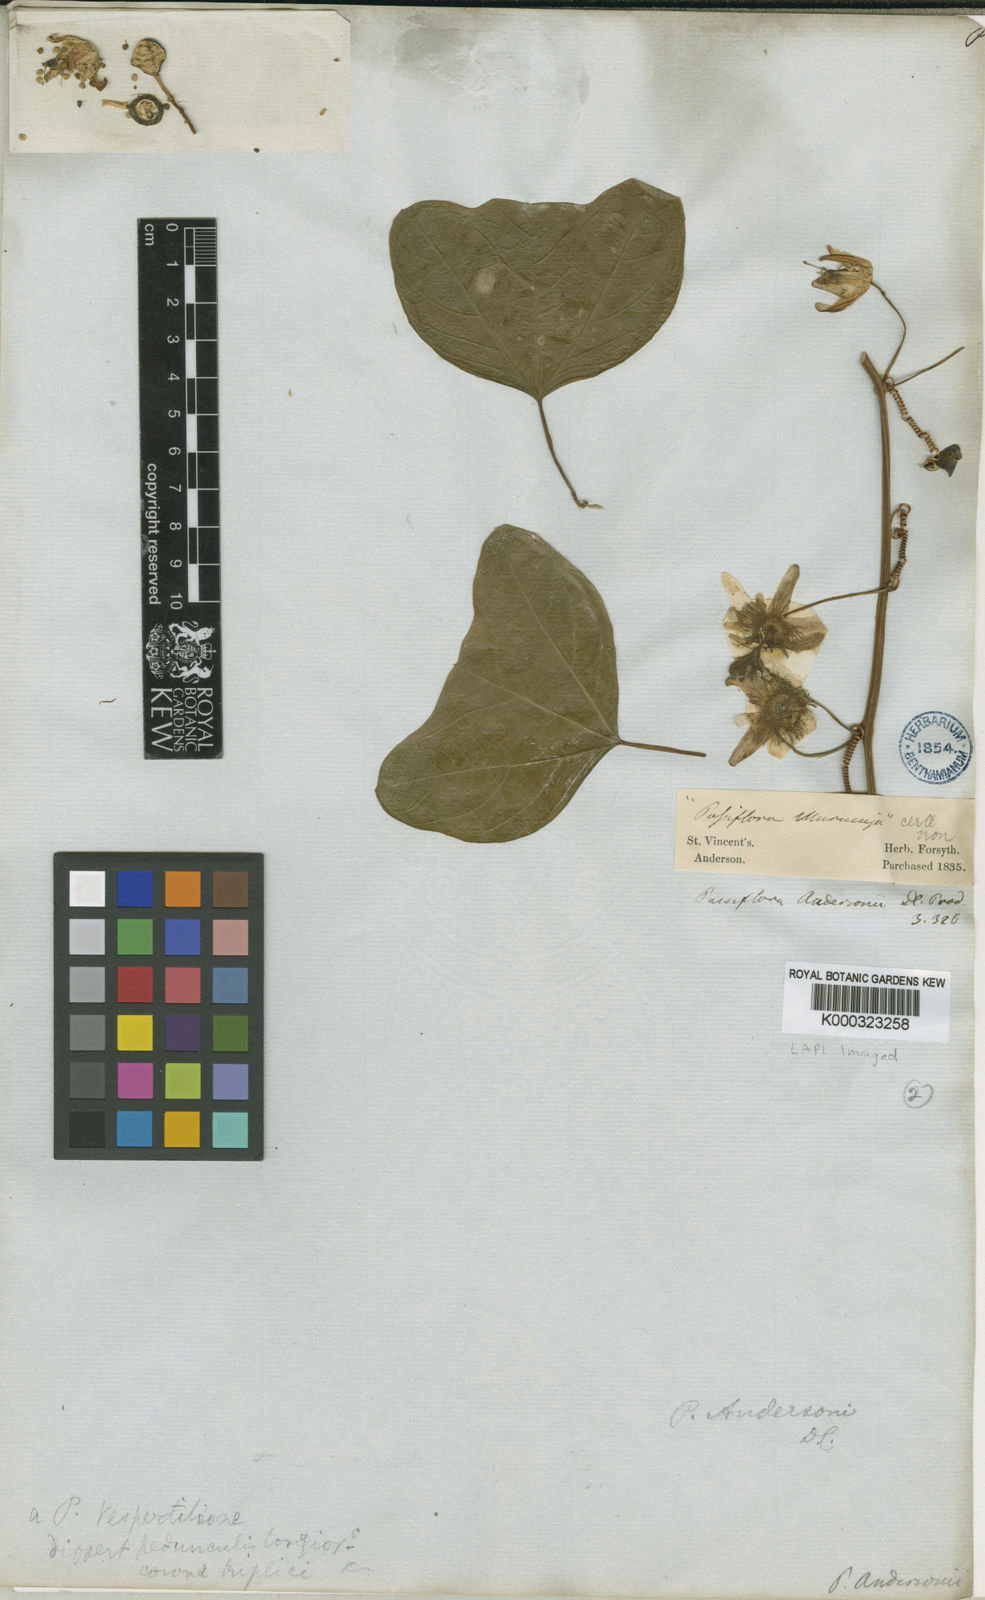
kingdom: Plantae
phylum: Tracheophyta
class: Magnoliopsida
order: Malpighiales
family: Passifloraceae
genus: Passiflora
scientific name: Passiflora andersonii
